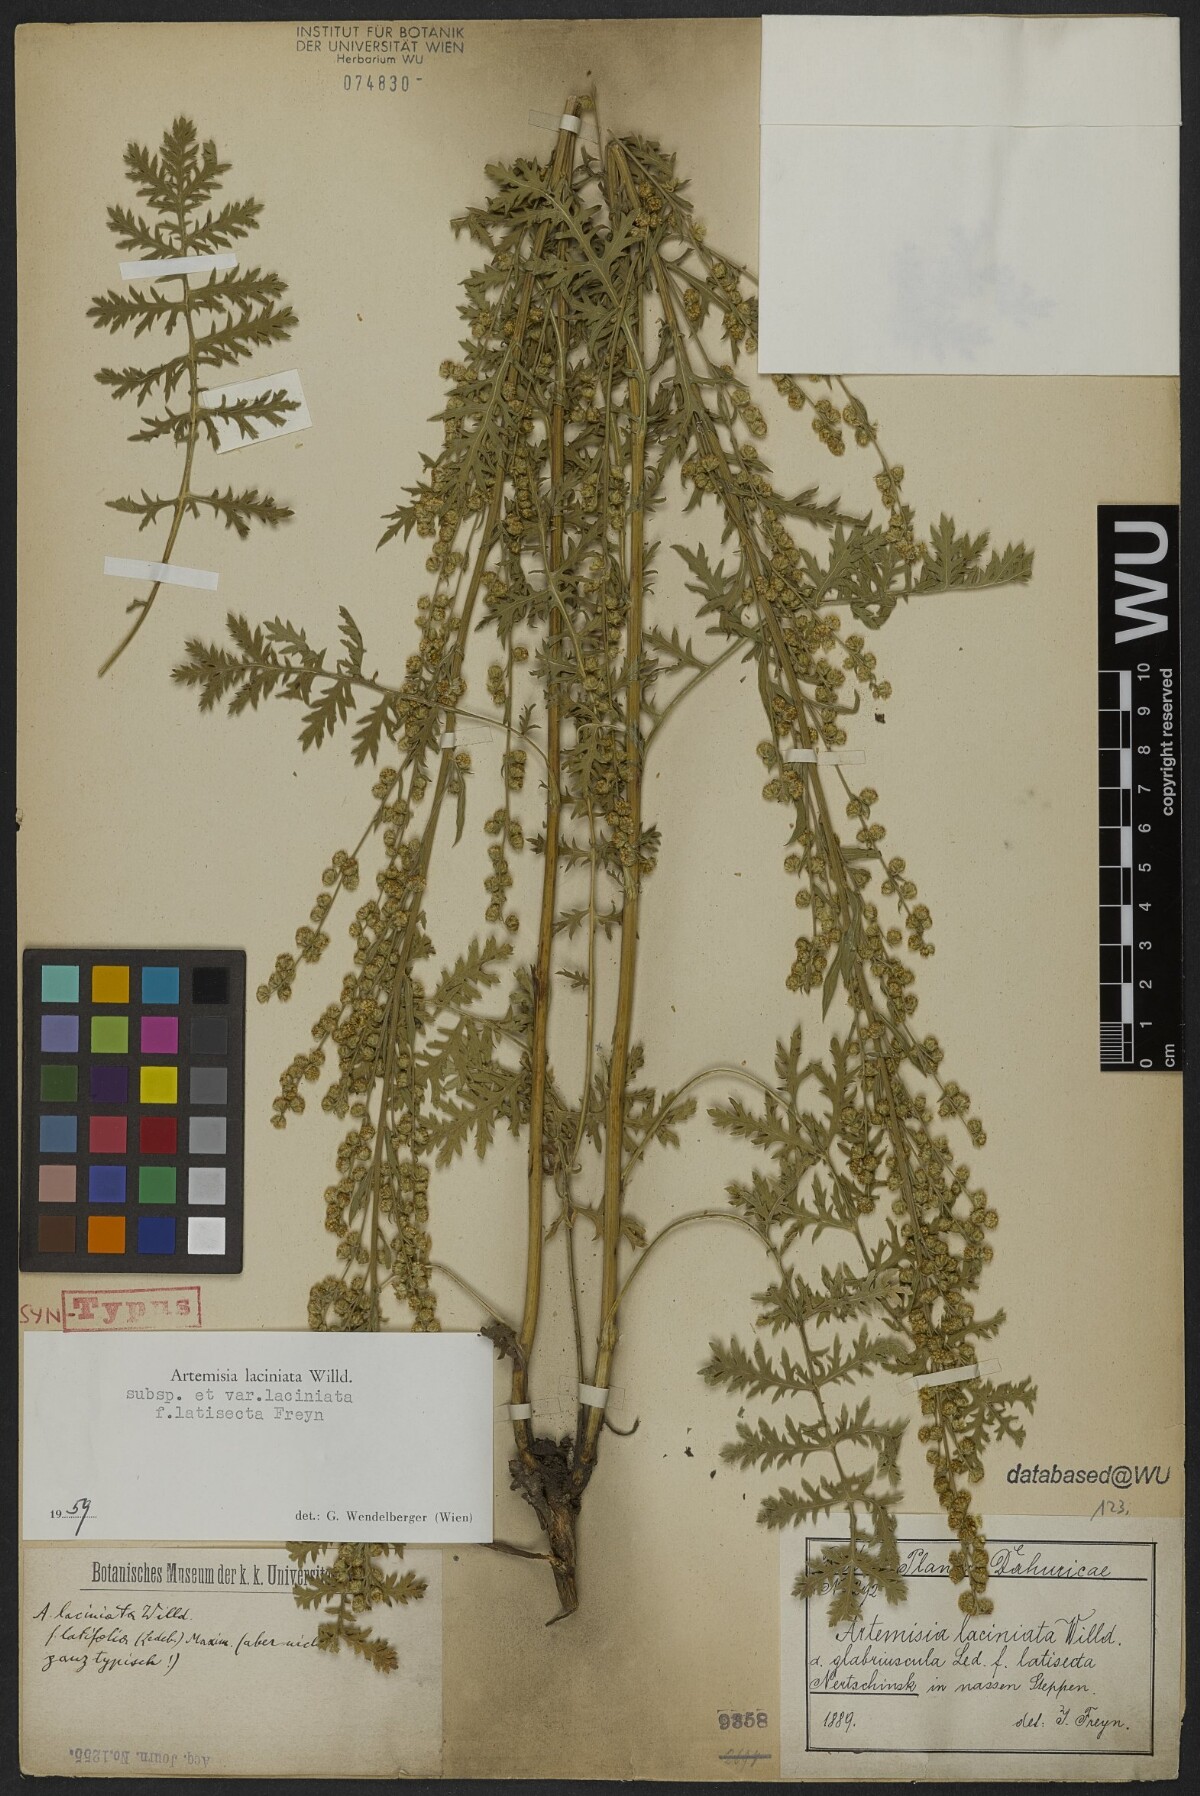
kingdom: Plantae
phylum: Tracheophyta
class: Magnoliopsida
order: Asterales
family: Asteraceae
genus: Artemisia
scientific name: Artemisia laciniata
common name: Siberian wormwood
